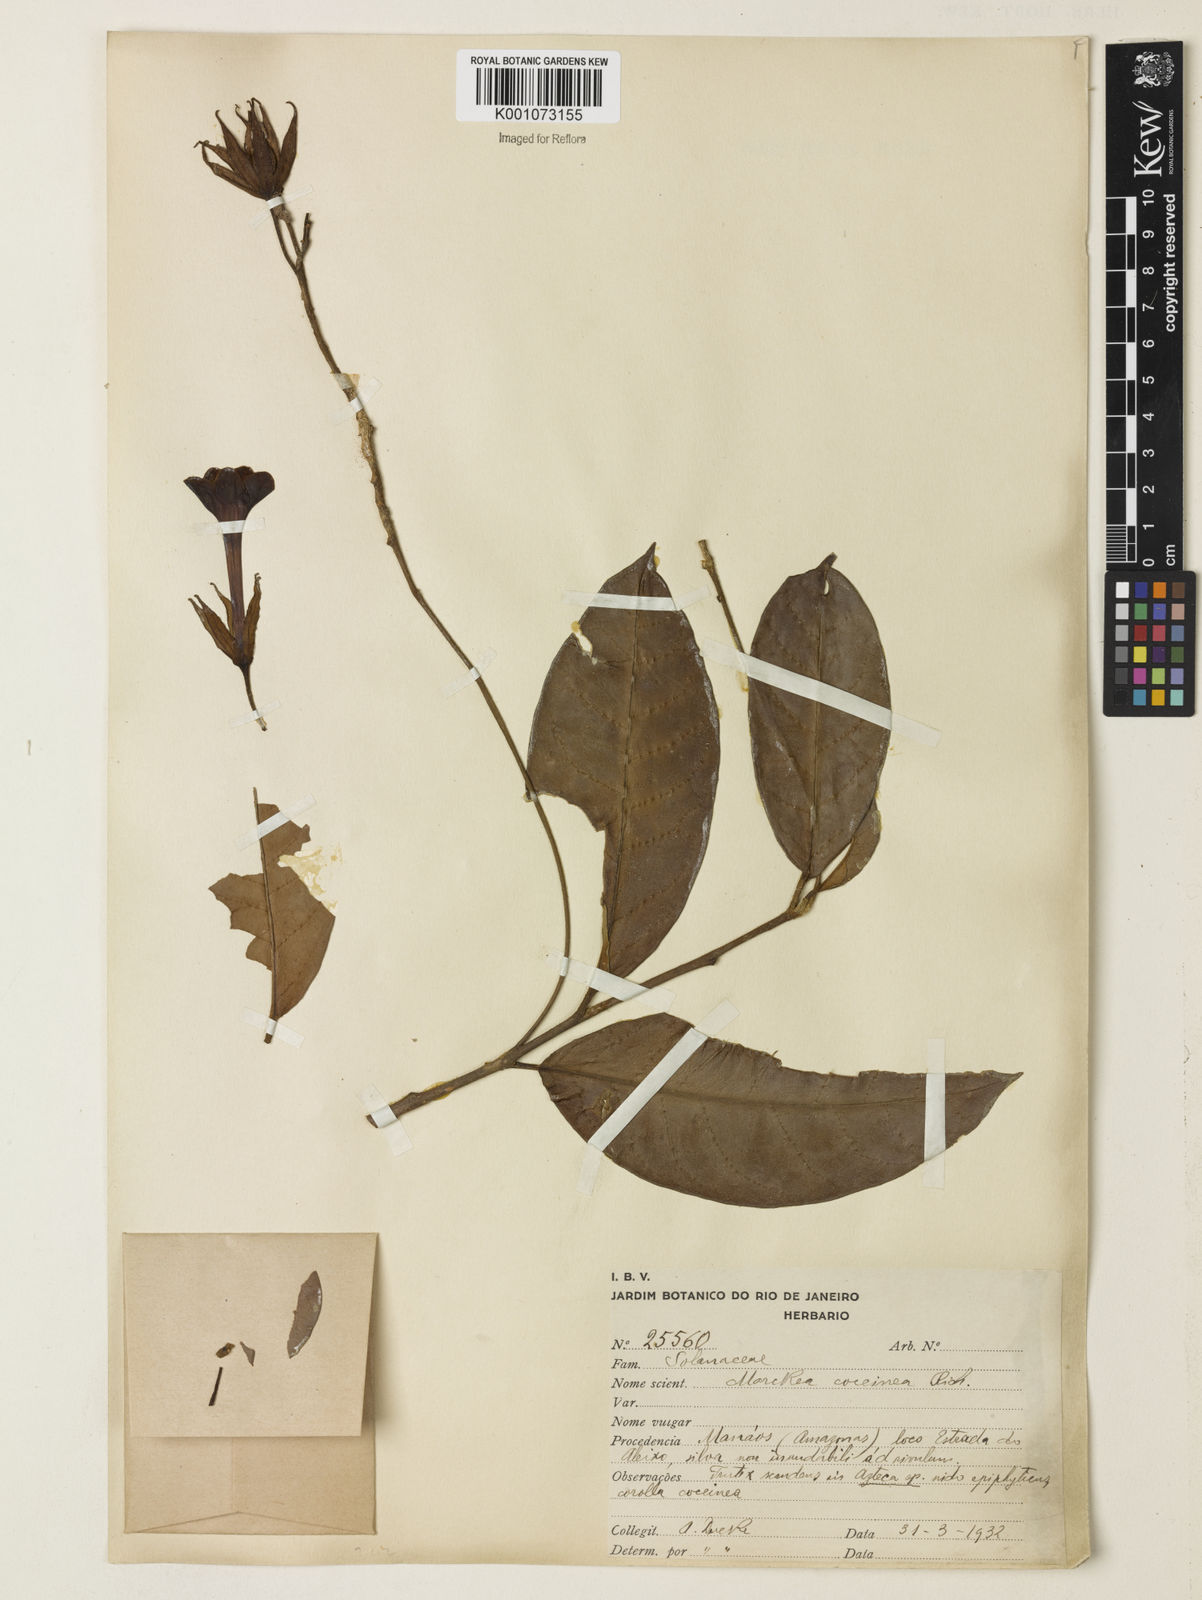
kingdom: Plantae
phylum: Tracheophyta
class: Magnoliopsida
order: Solanales
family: Solanaceae
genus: Markea
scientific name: Markea coccinea
